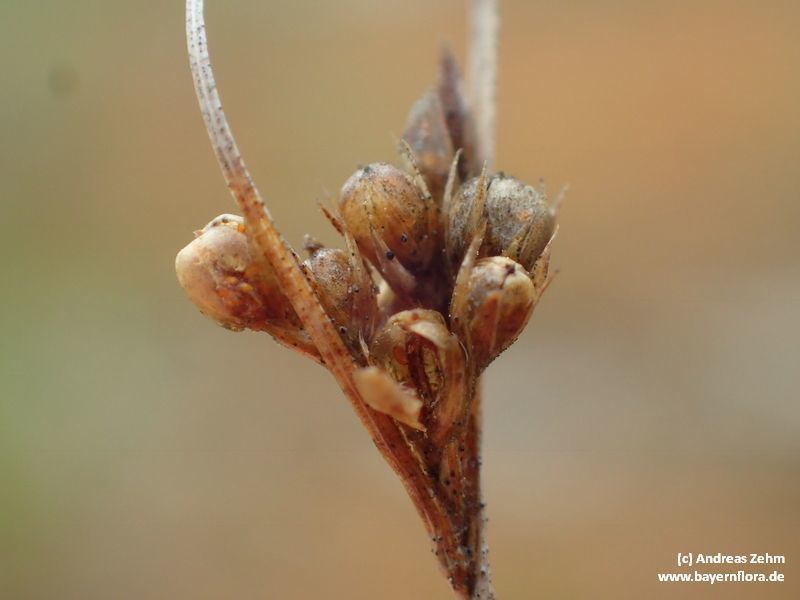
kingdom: Plantae
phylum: Tracheophyta
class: Liliopsida
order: Poales
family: Juncaceae
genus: Juncus
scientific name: Juncus tenuis
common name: Slender rush
